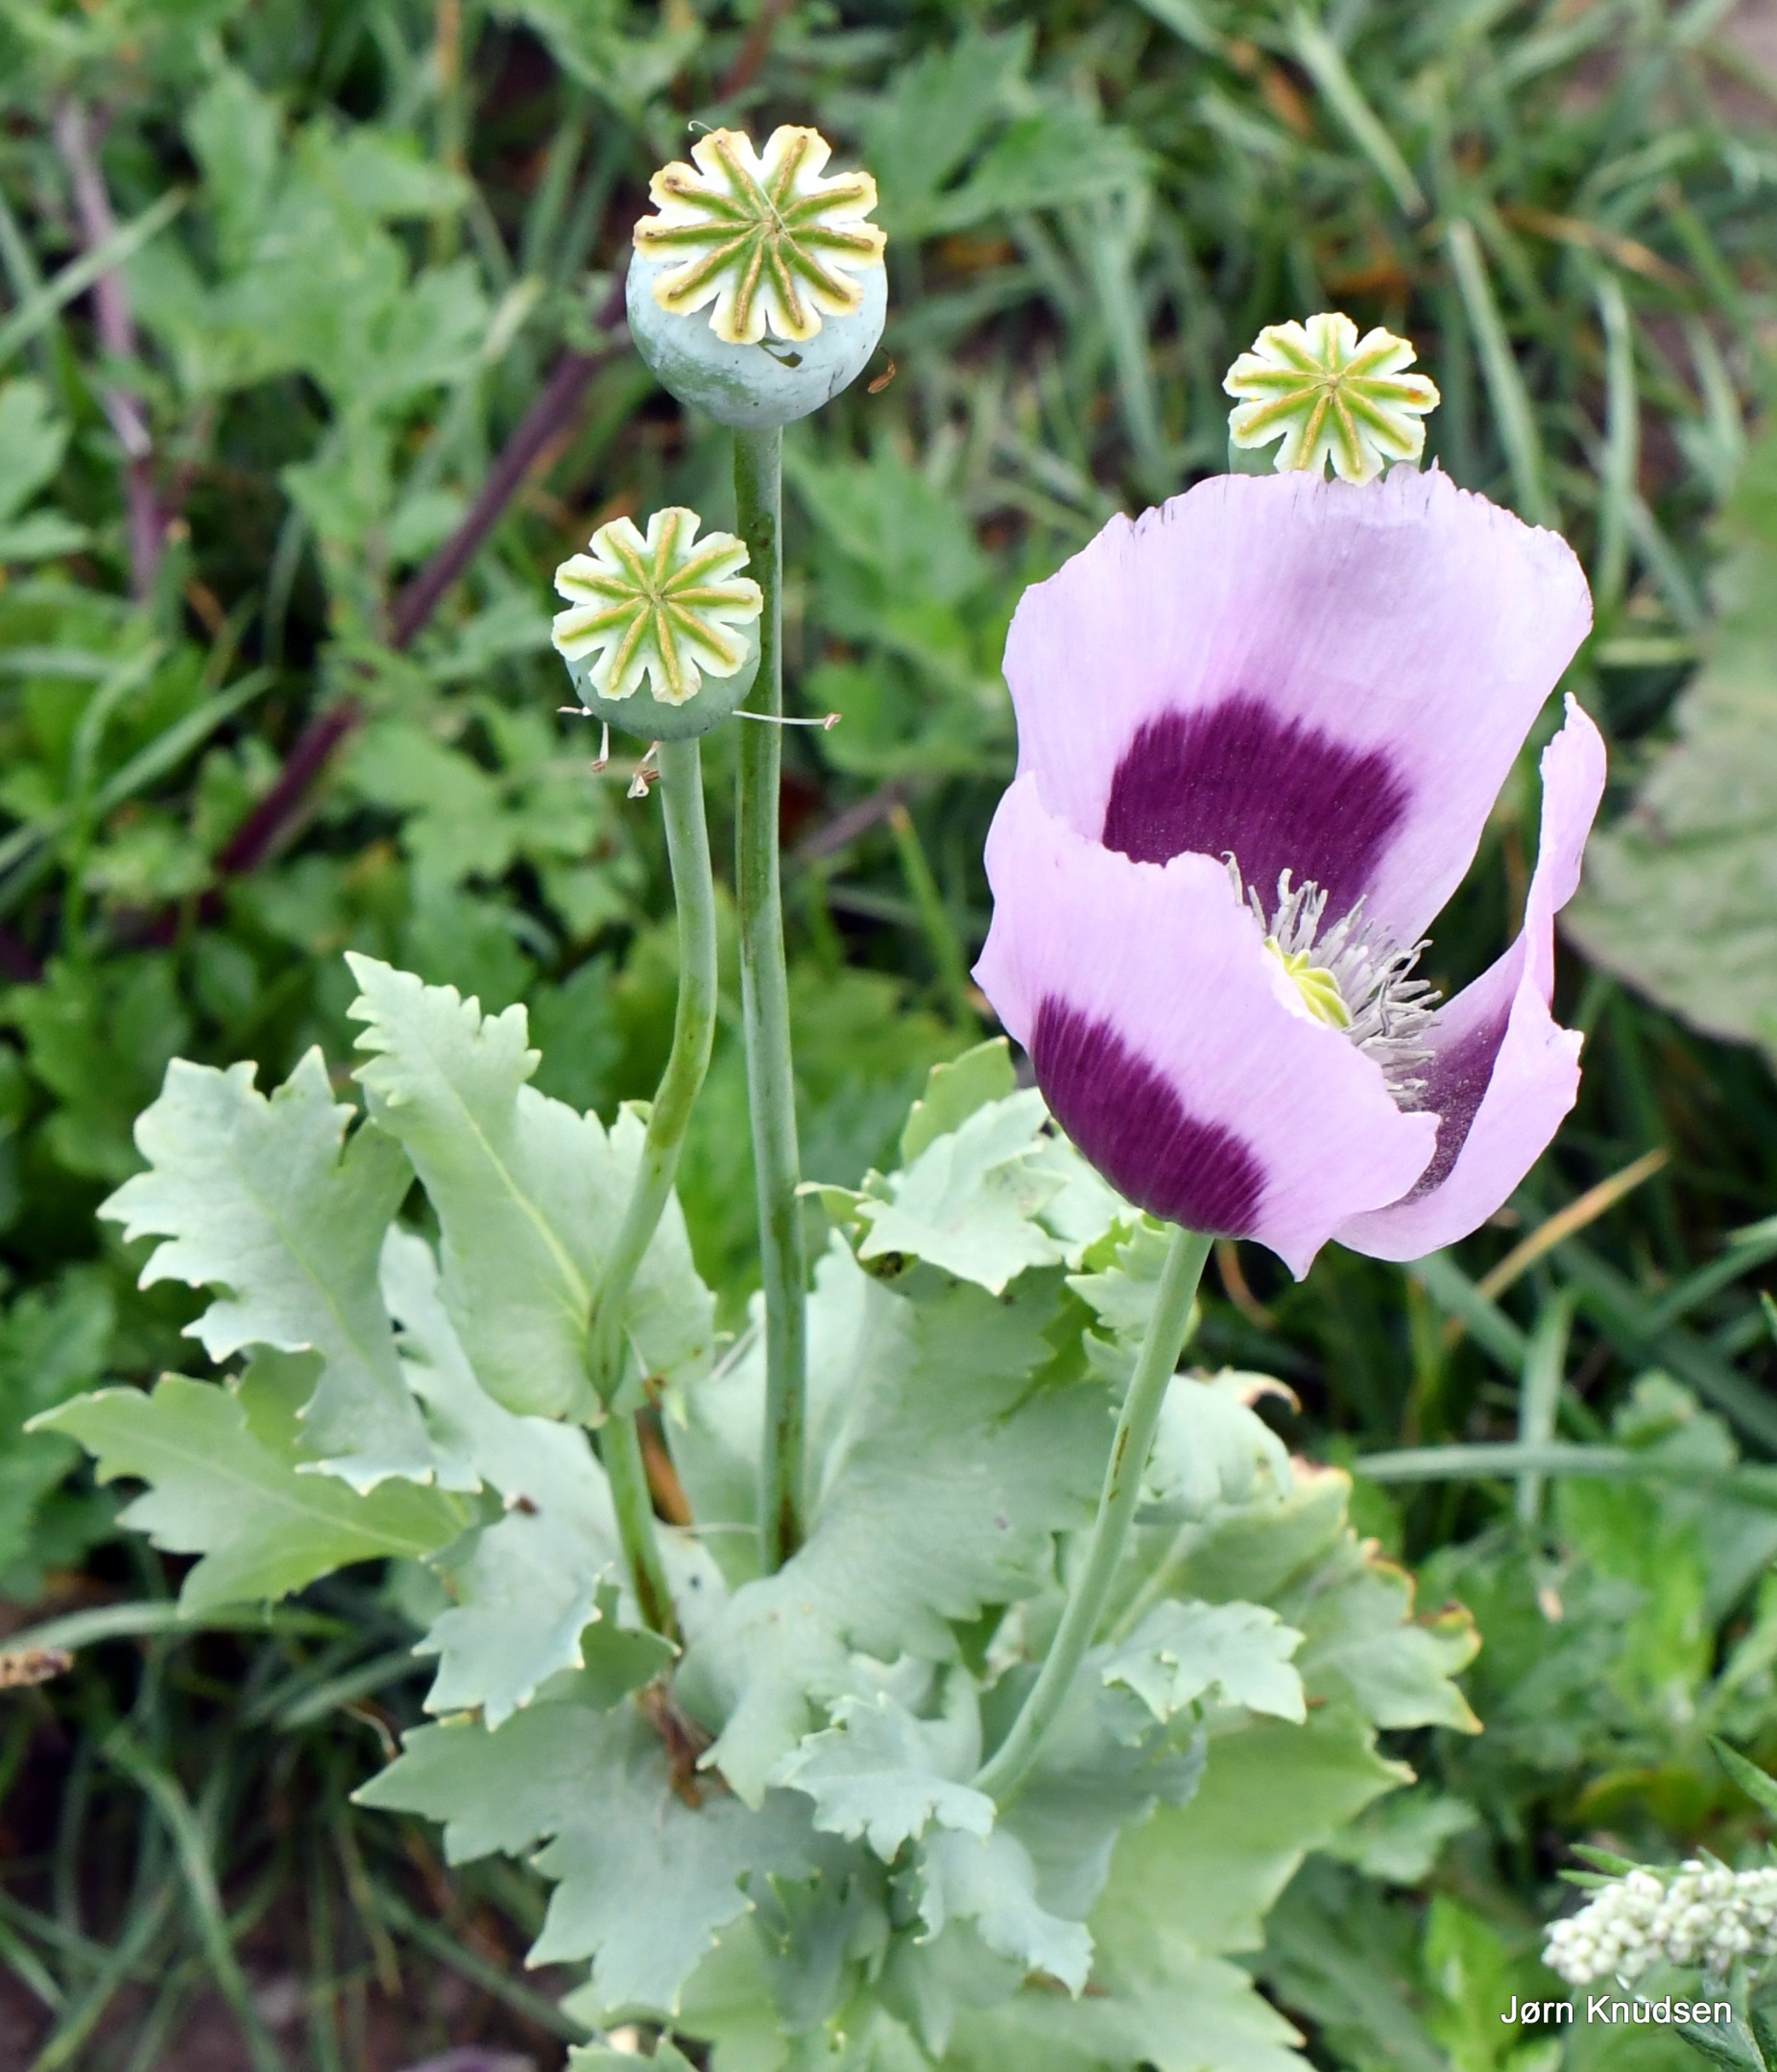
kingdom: Plantae
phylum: Tracheophyta
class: Magnoliopsida
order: Ranunculales
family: Papaveraceae
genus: Papaver
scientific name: Papaver somniferum
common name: Opium-valmue
